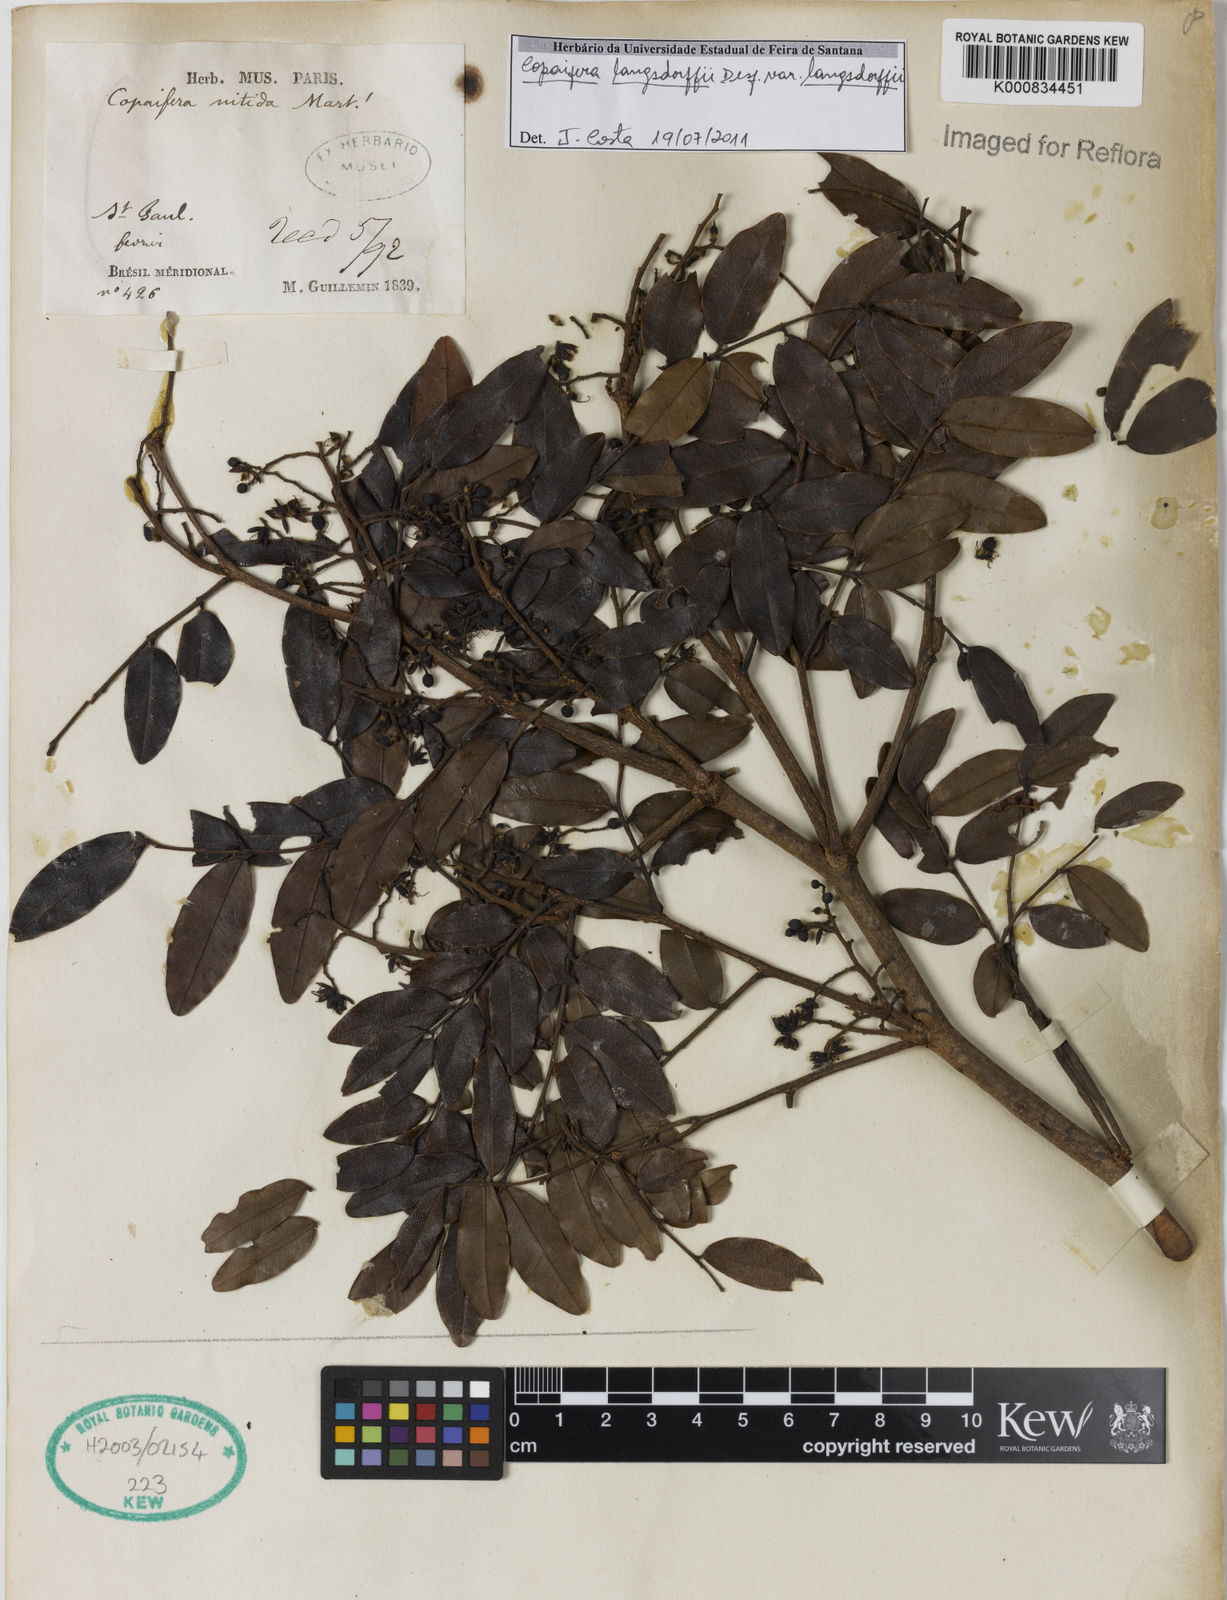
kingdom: Plantae
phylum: Tracheophyta
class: Magnoliopsida
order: Fabales
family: Fabaceae
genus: Copaifera
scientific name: Copaifera langsdorffii
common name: Brazilian diesel tree
